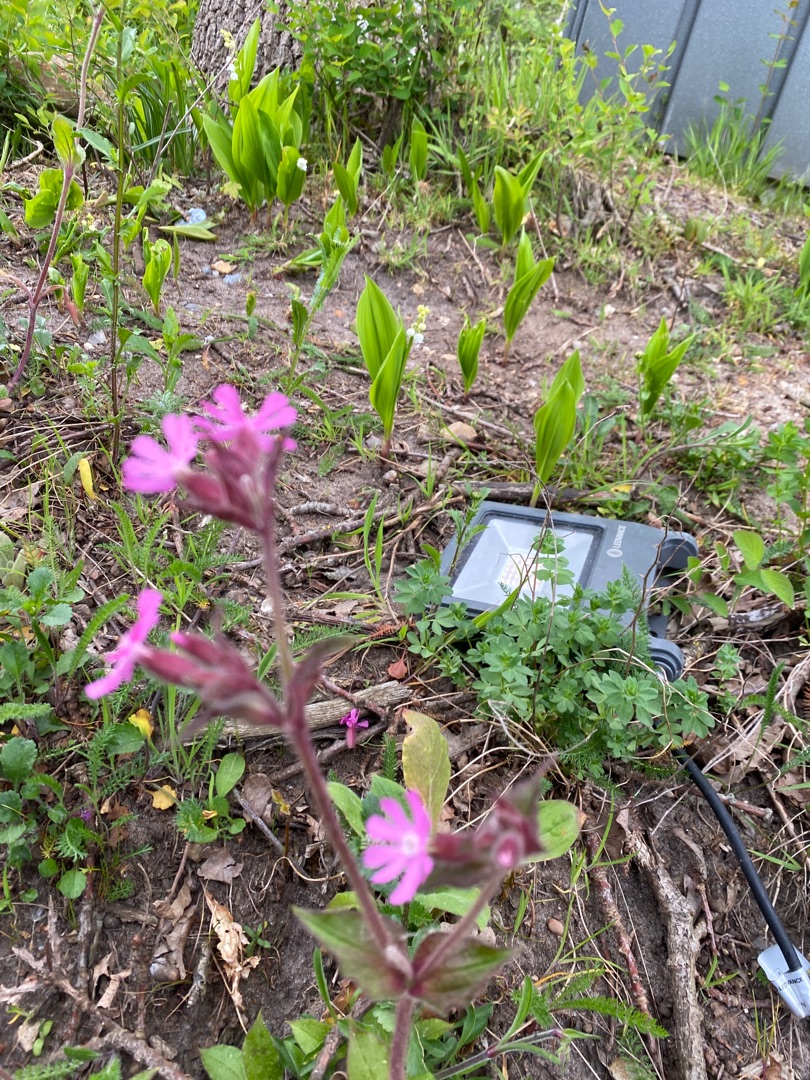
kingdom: Plantae
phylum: Tracheophyta
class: Magnoliopsida
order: Caryophyllales
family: Caryophyllaceae
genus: Silene
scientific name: Silene dioica
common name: Dagpragtstjerne
